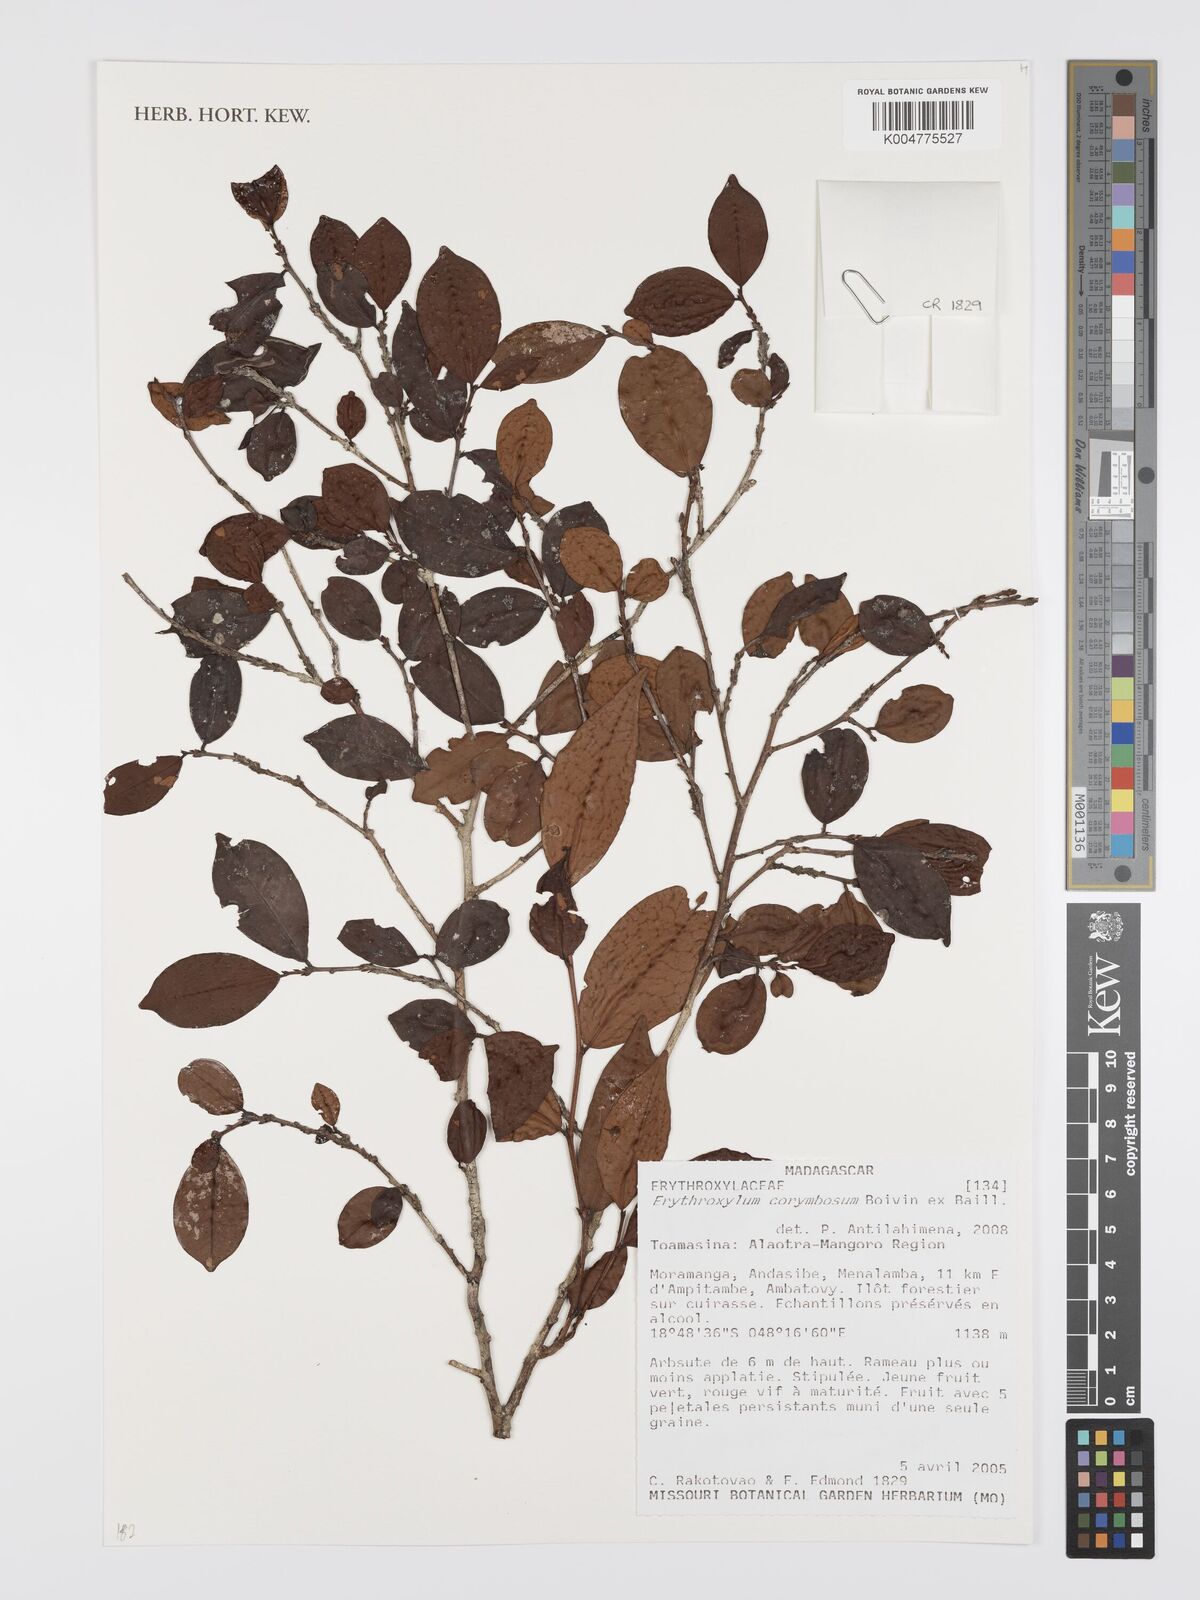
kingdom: Plantae
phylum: Tracheophyta
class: Magnoliopsida
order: Malpighiales
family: Erythroxylaceae
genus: Erythroxylum
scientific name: Erythroxylum corymbosum
